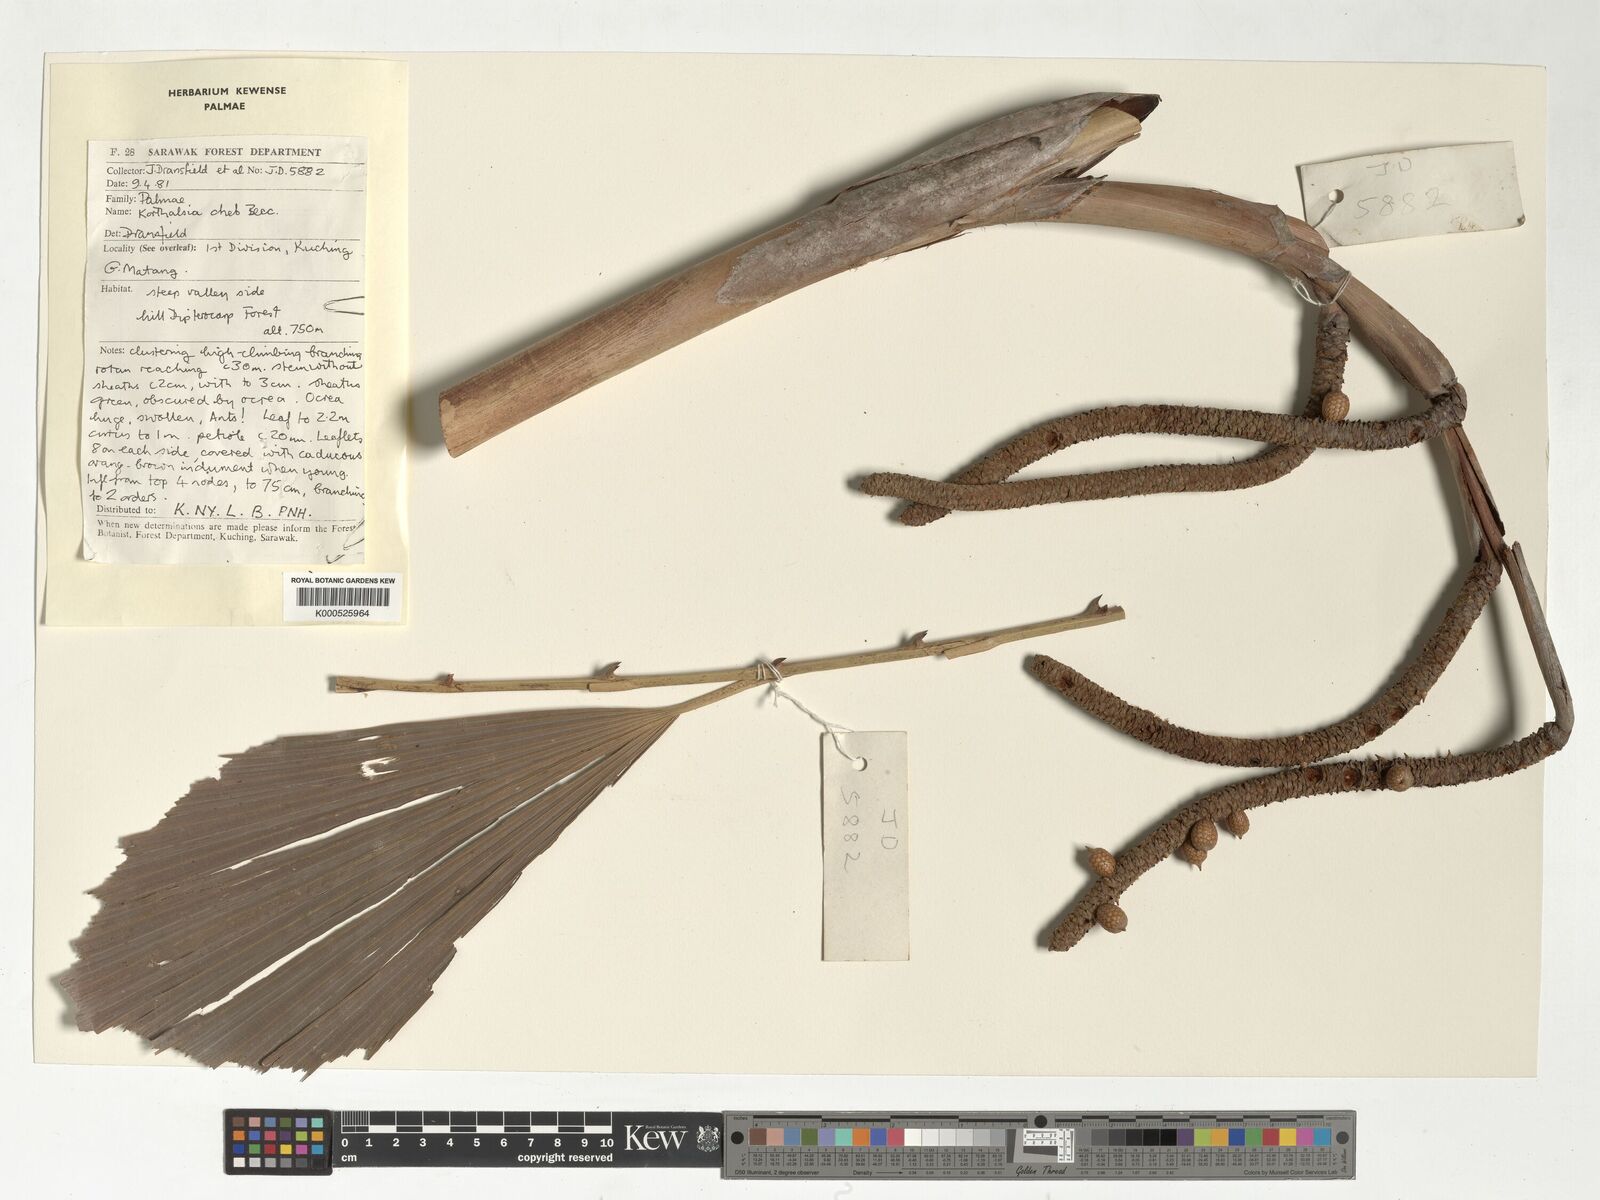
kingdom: Plantae
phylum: Tracheophyta
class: Liliopsida
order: Arecales
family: Arecaceae
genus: Korthalsia
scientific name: Korthalsia cheb
